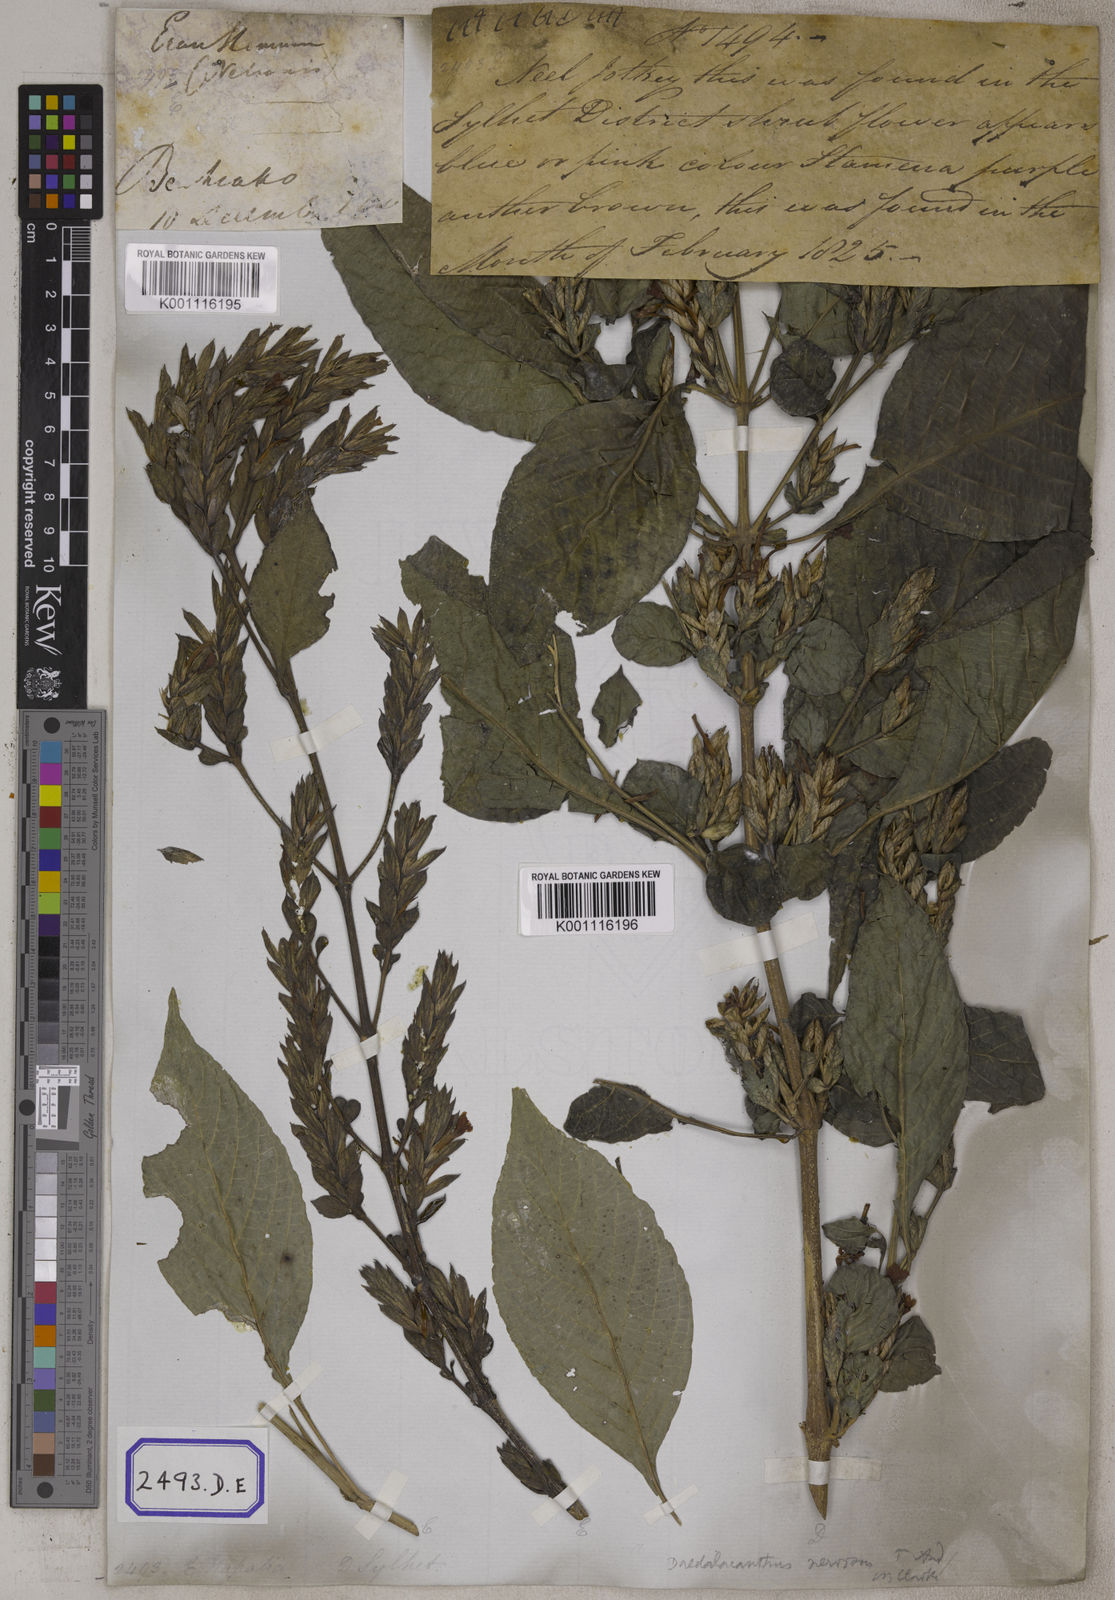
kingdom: Plantae
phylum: Tracheophyta
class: Magnoliopsida
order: Lamiales
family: Acanthaceae
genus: Eranthemum
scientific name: Eranthemum
